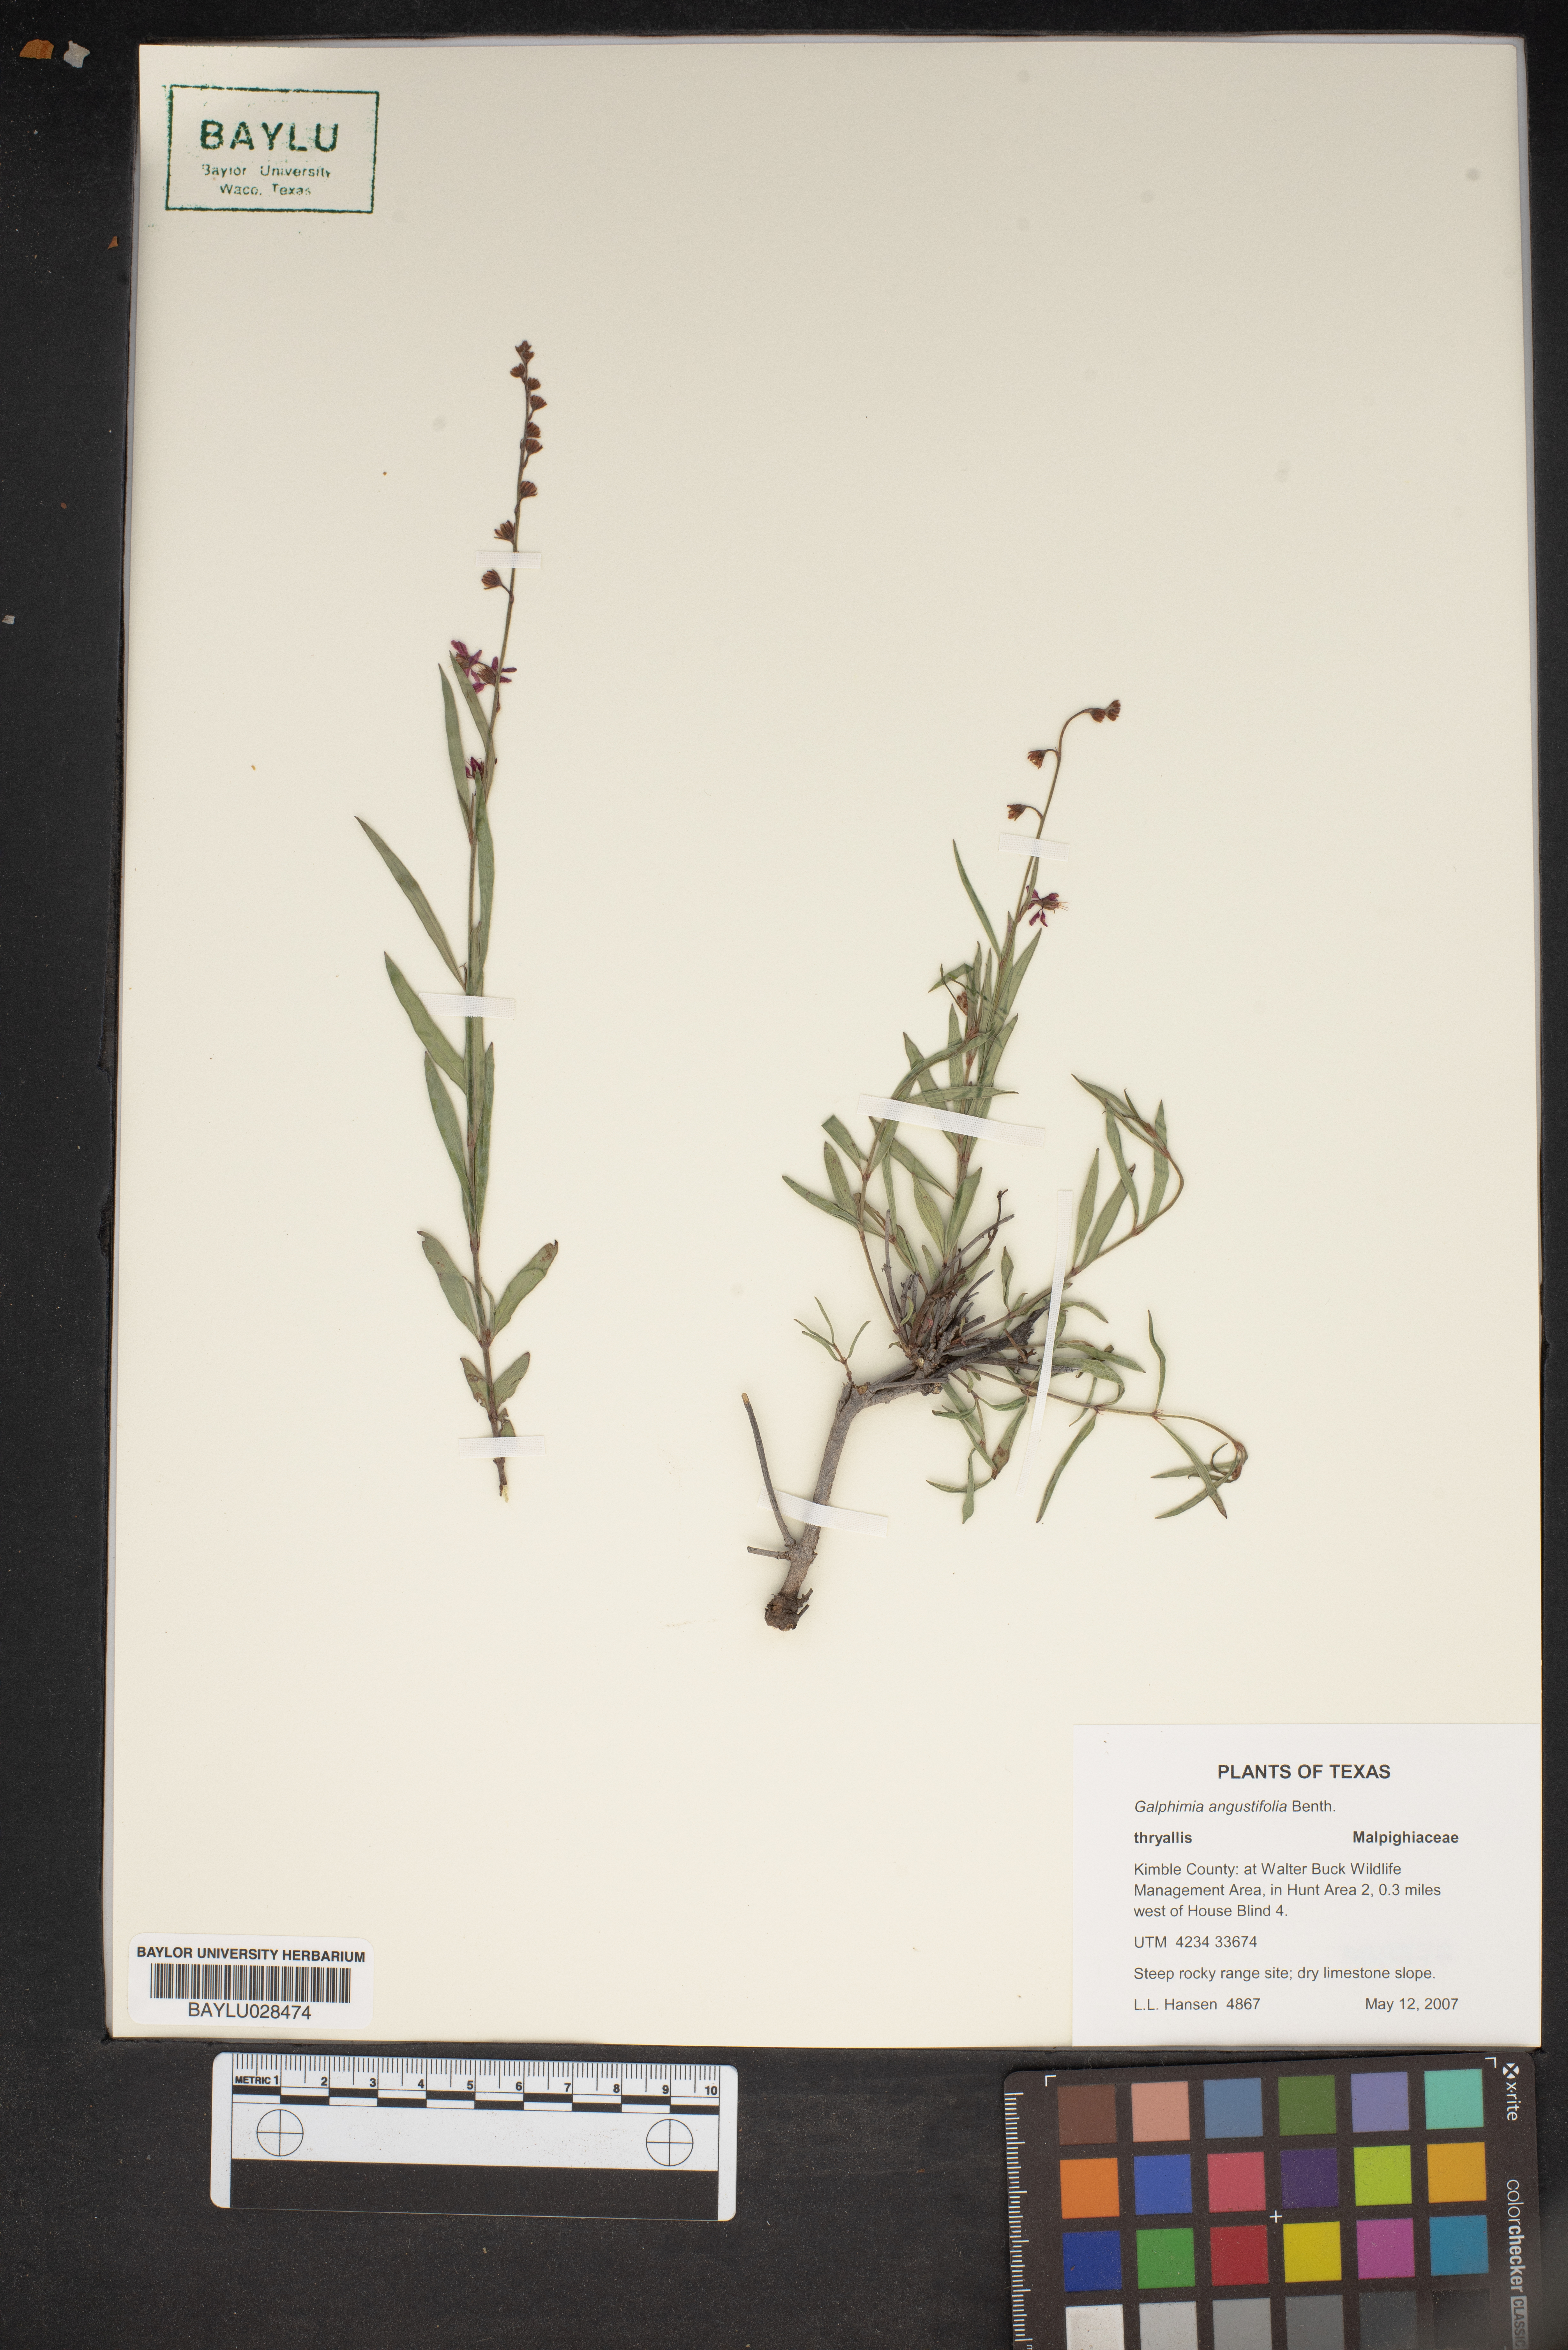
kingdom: Plantae
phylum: Tracheophyta
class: Magnoliopsida
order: Malpighiales
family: Malpighiaceae
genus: Galphimia
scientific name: Galphimia angustifolia
